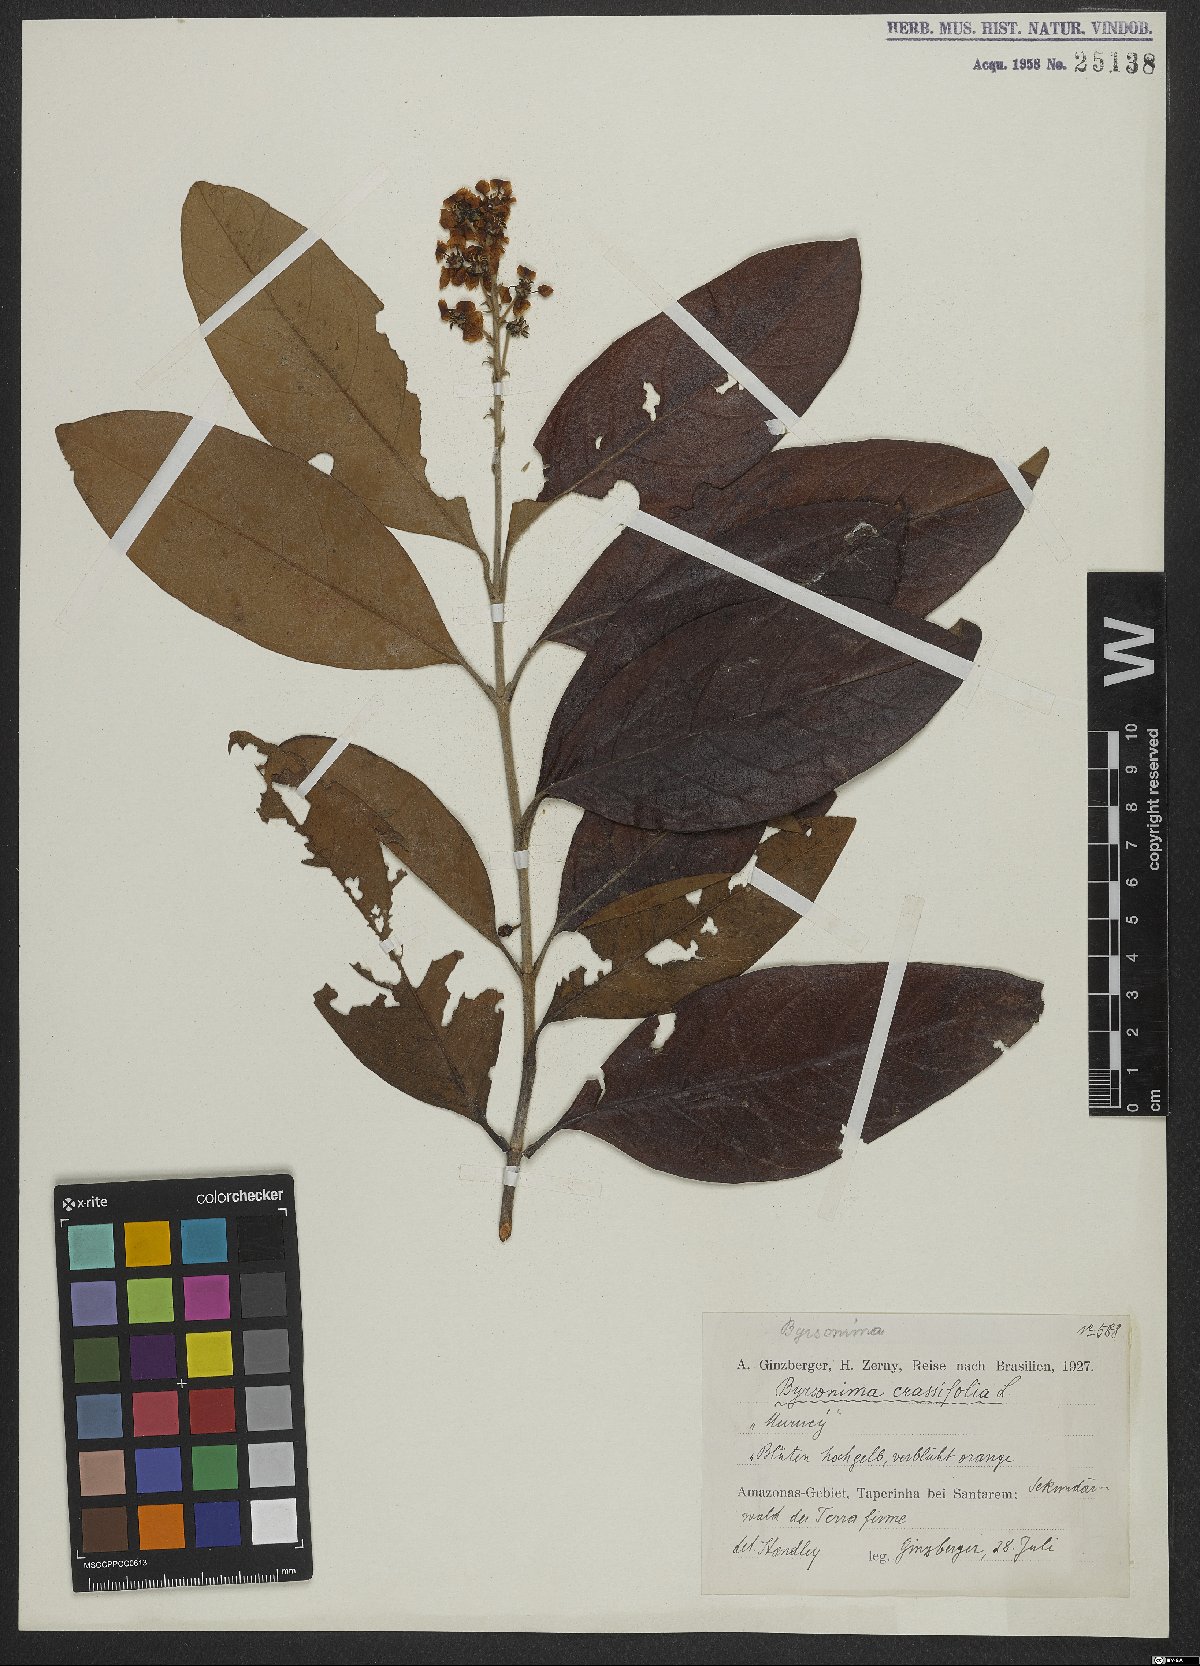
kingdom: Plantae
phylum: Tracheophyta
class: Magnoliopsida
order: Malpighiales
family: Malpighiaceae
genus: Byrsonima
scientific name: Byrsonima crassifolia
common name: Golden spoon
